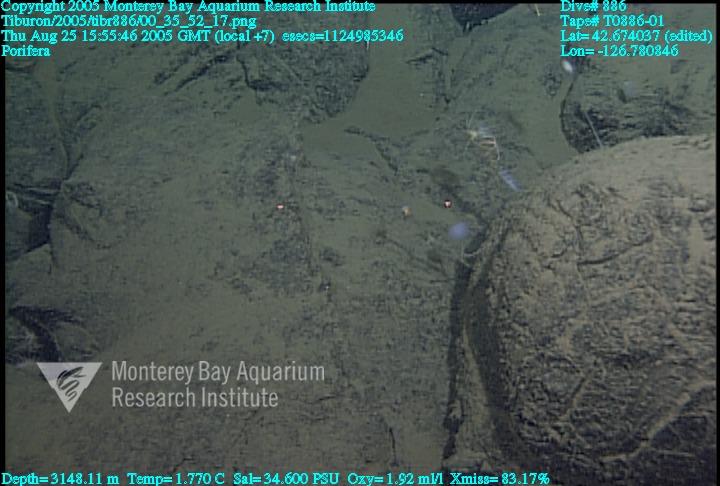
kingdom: Animalia
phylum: Porifera
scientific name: Porifera
